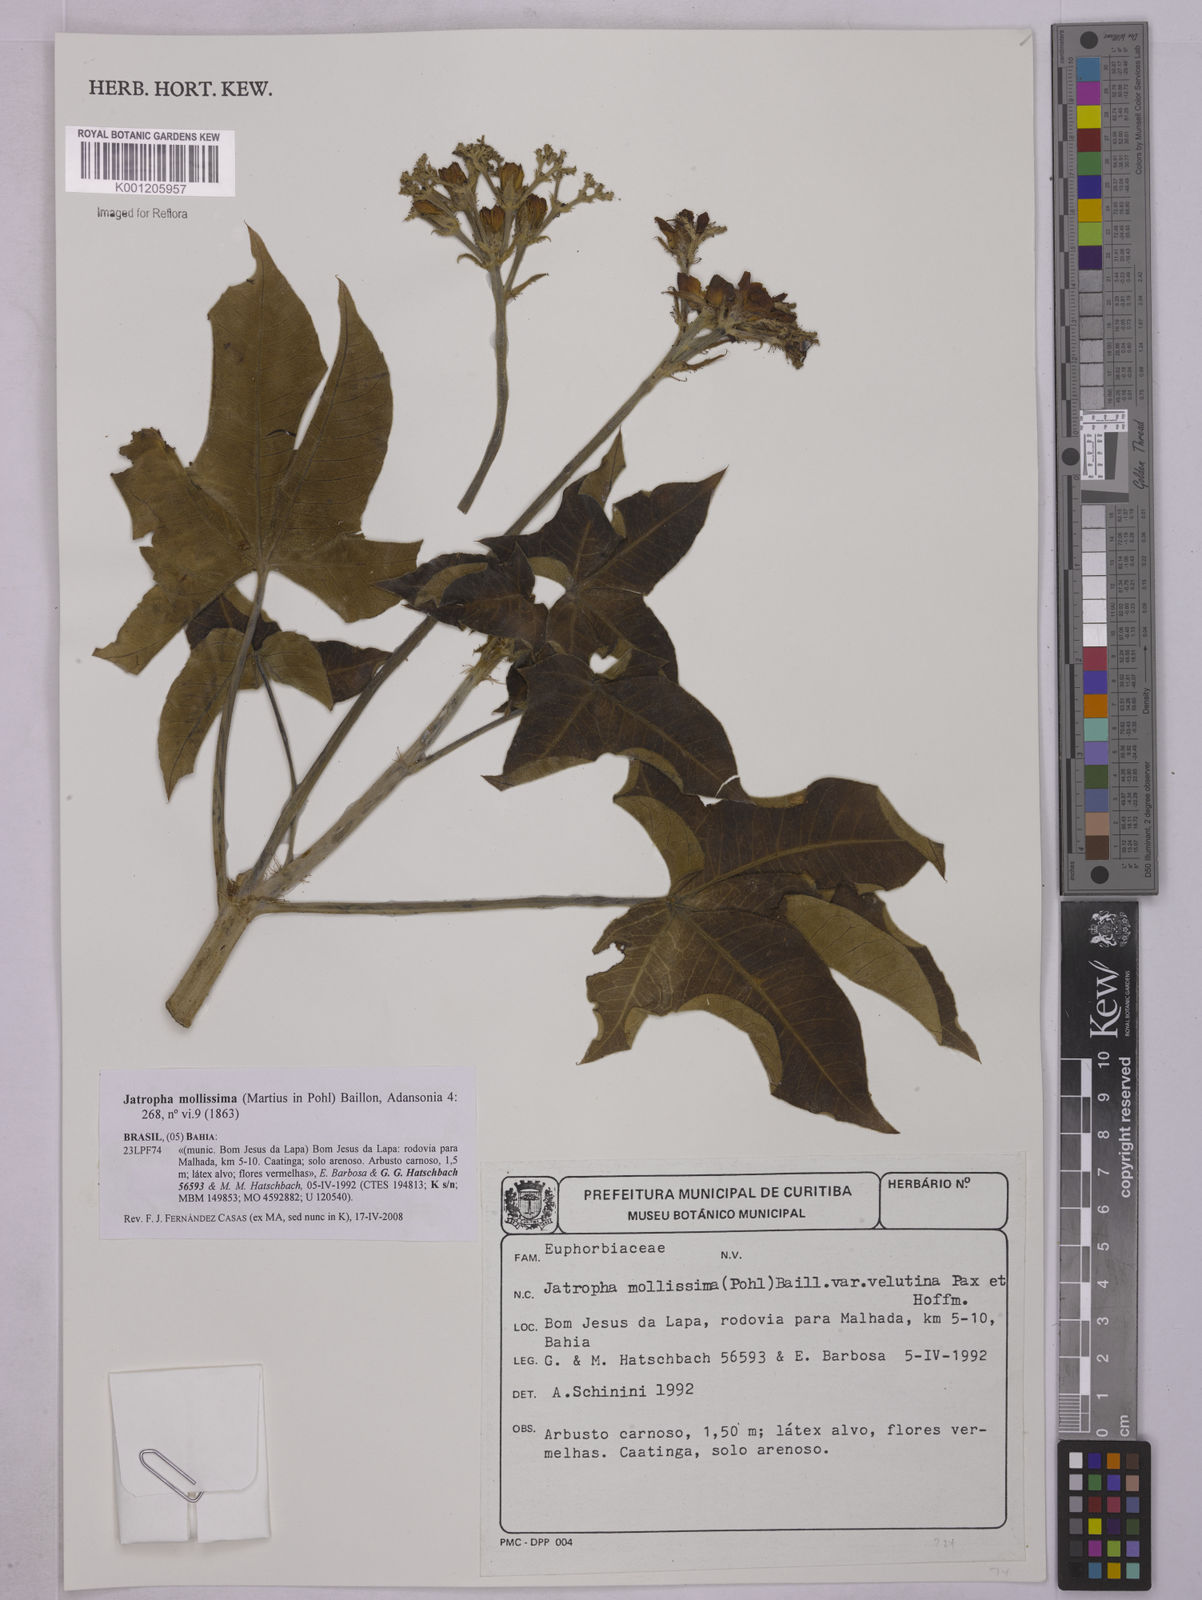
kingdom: Plantae
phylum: Tracheophyta
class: Magnoliopsida
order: Malpighiales
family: Euphorbiaceae
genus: Jatropha
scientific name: Jatropha mollissima
